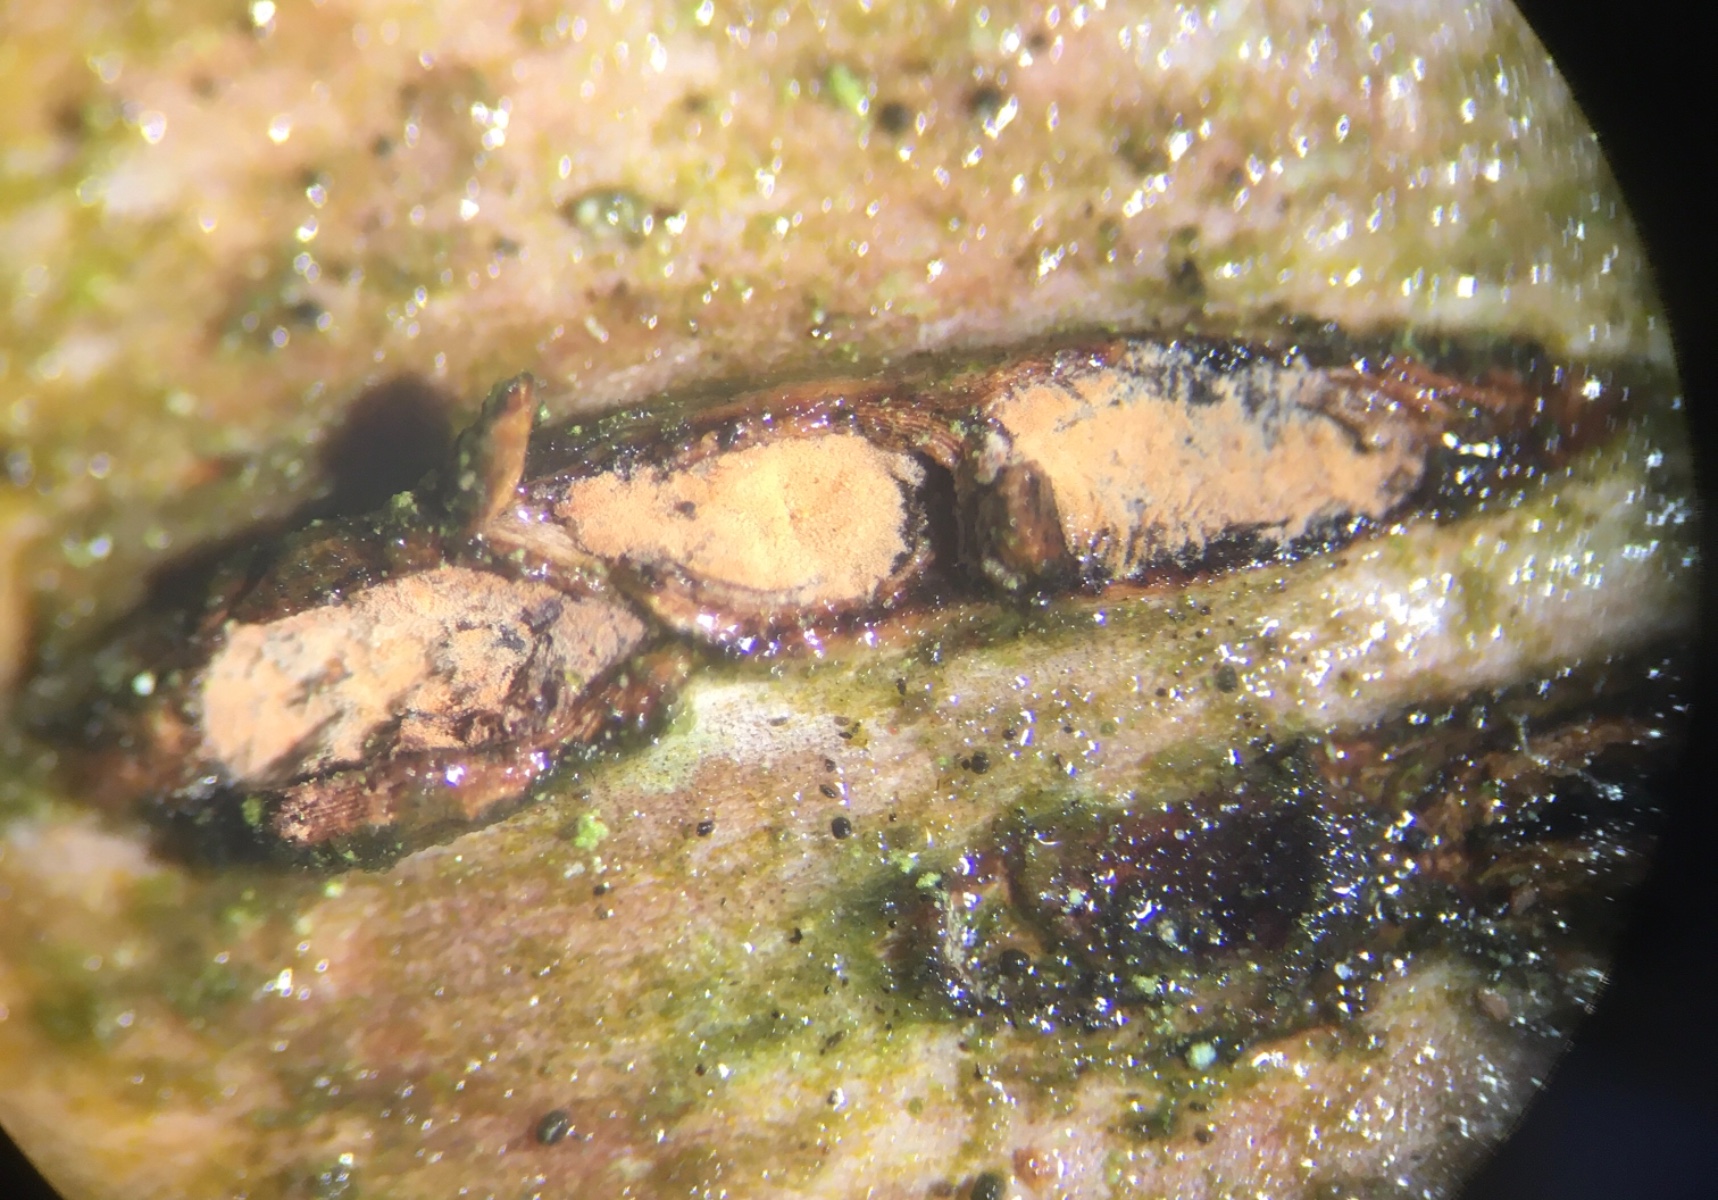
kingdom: Fungi
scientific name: Fungi
